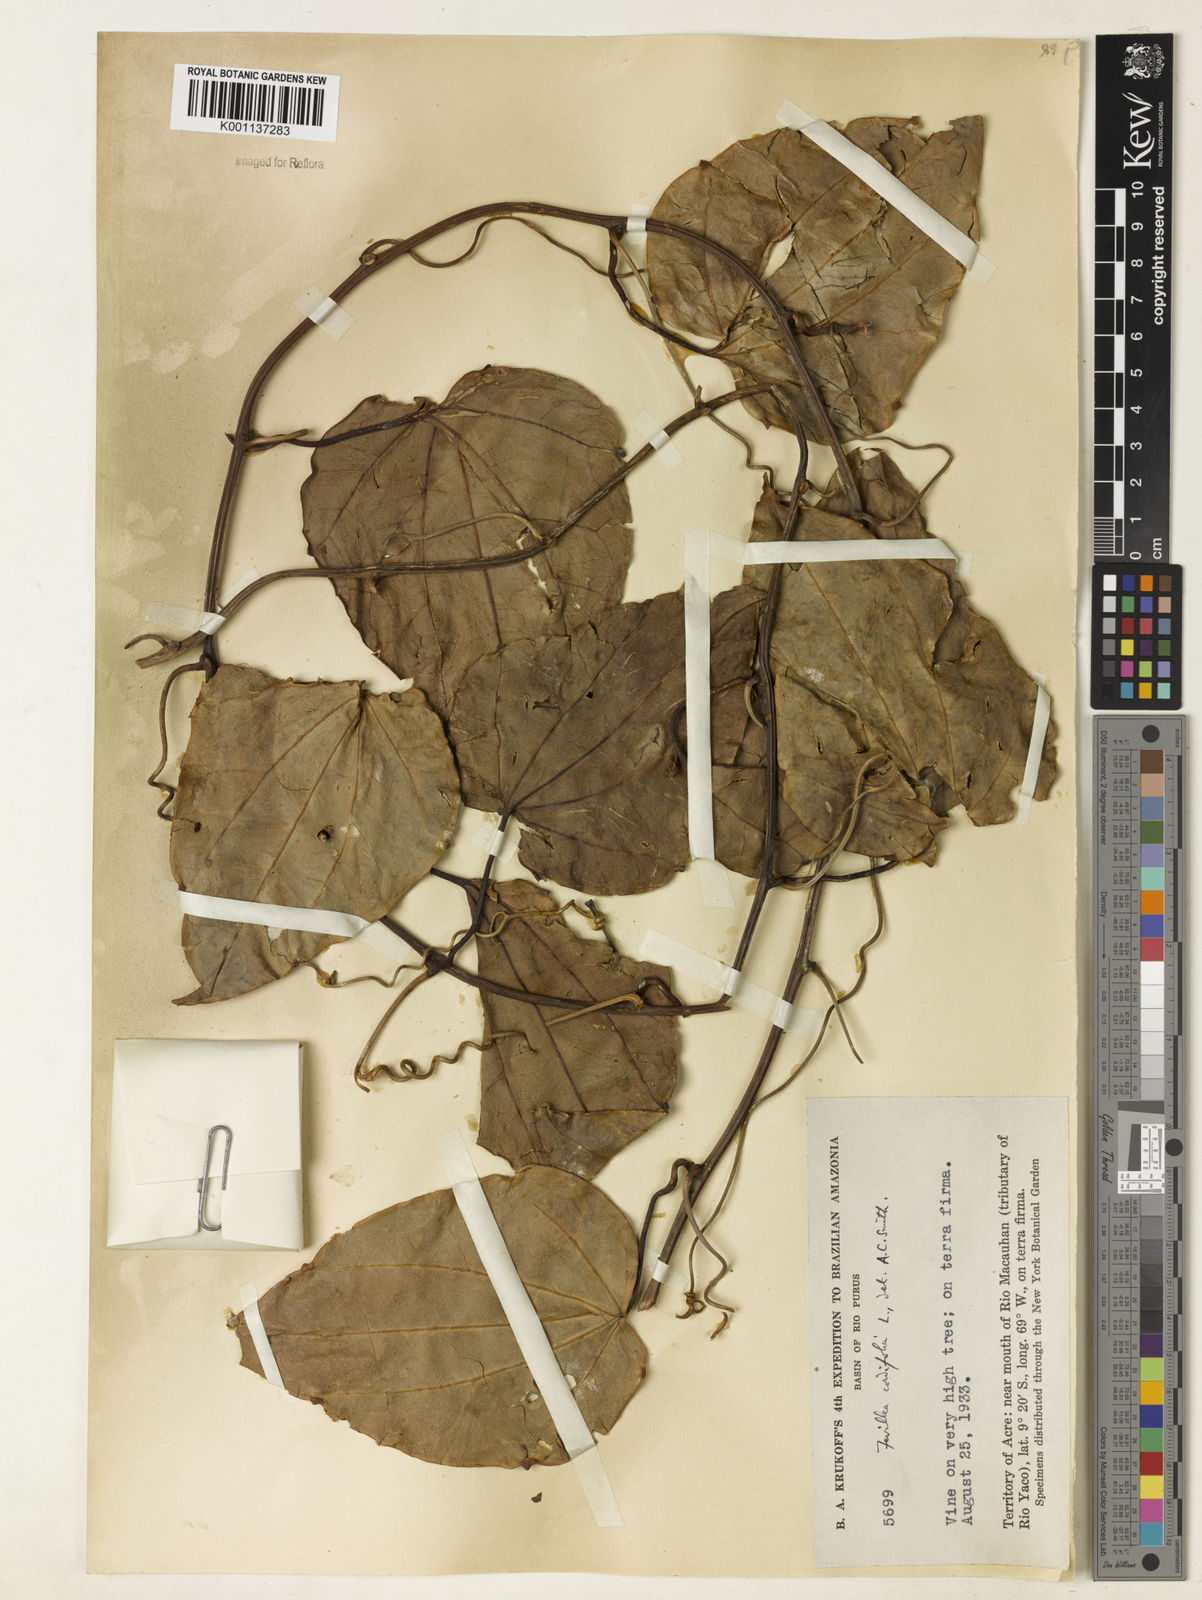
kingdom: Plantae
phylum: Tracheophyta
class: Magnoliopsida
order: Cucurbitales
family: Cucurbitaceae
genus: Fevillea
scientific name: Fevillea cordifolia
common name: Antidote-vine
